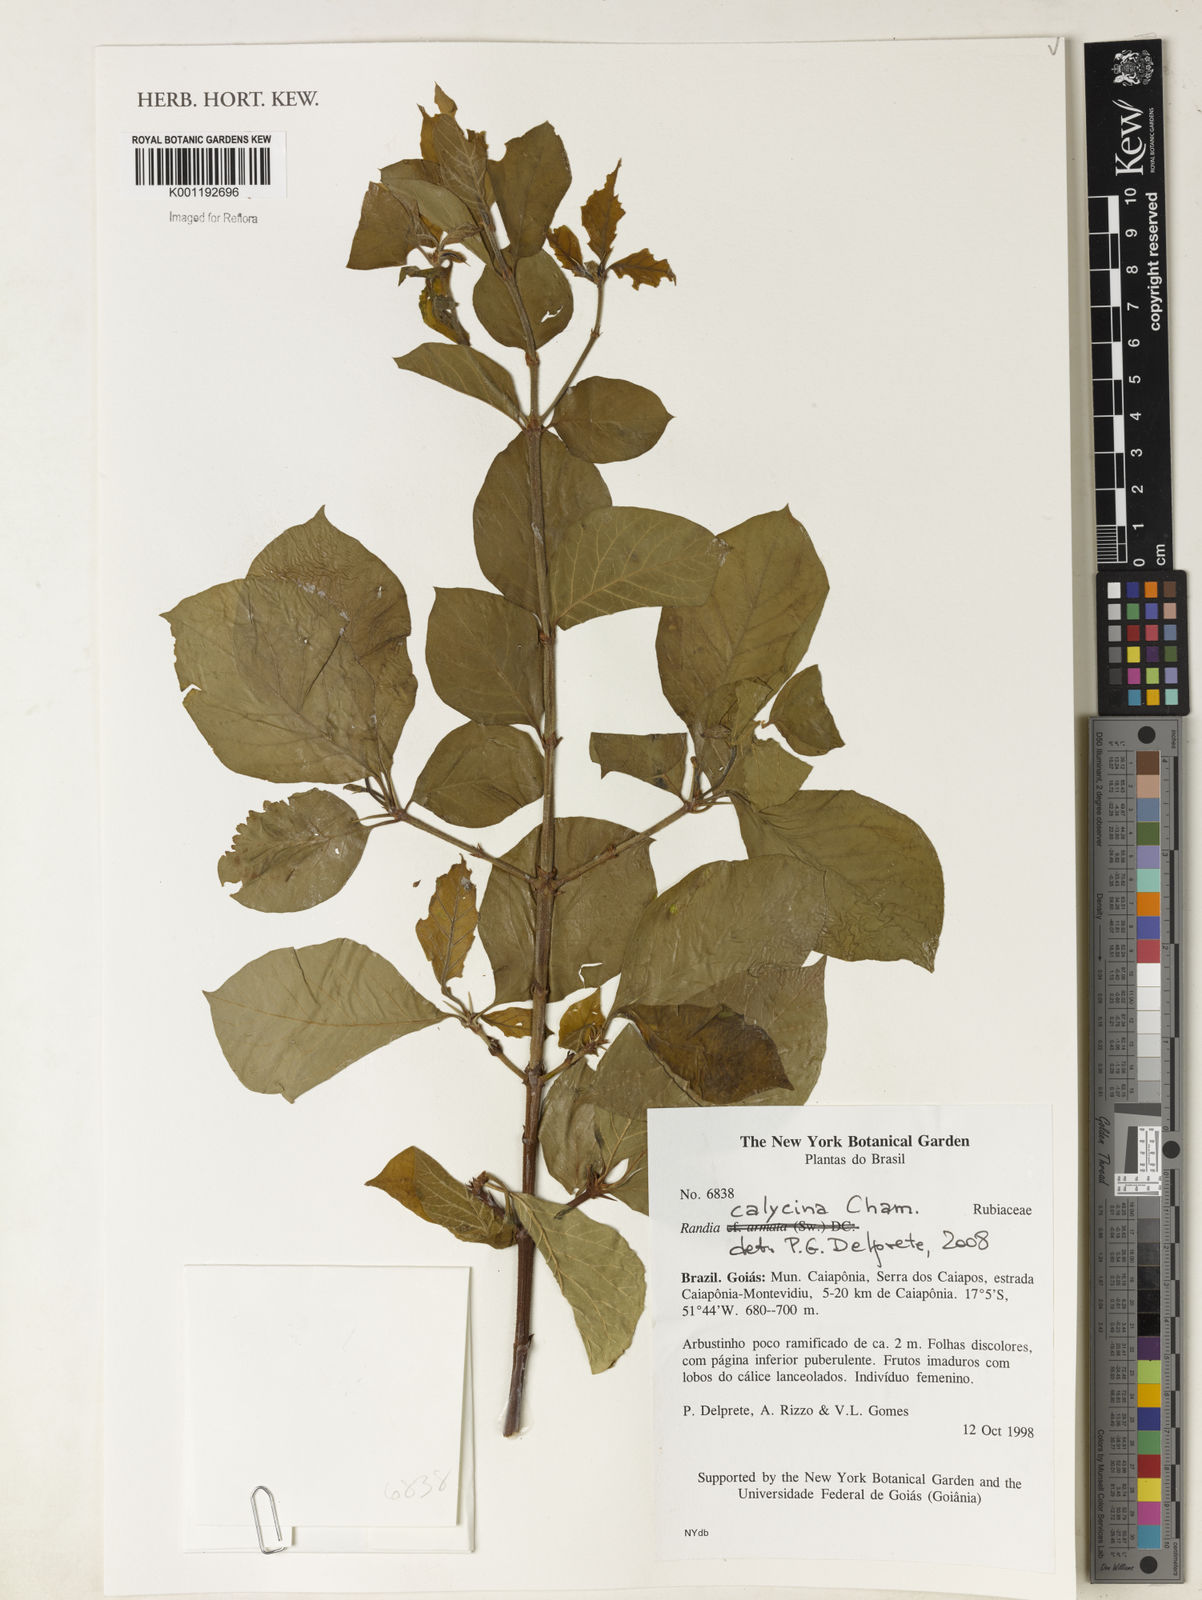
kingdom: Plantae
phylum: Tracheophyta
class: Magnoliopsida
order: Gentianales
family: Rubiaceae
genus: Randia
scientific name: Randia calycina
